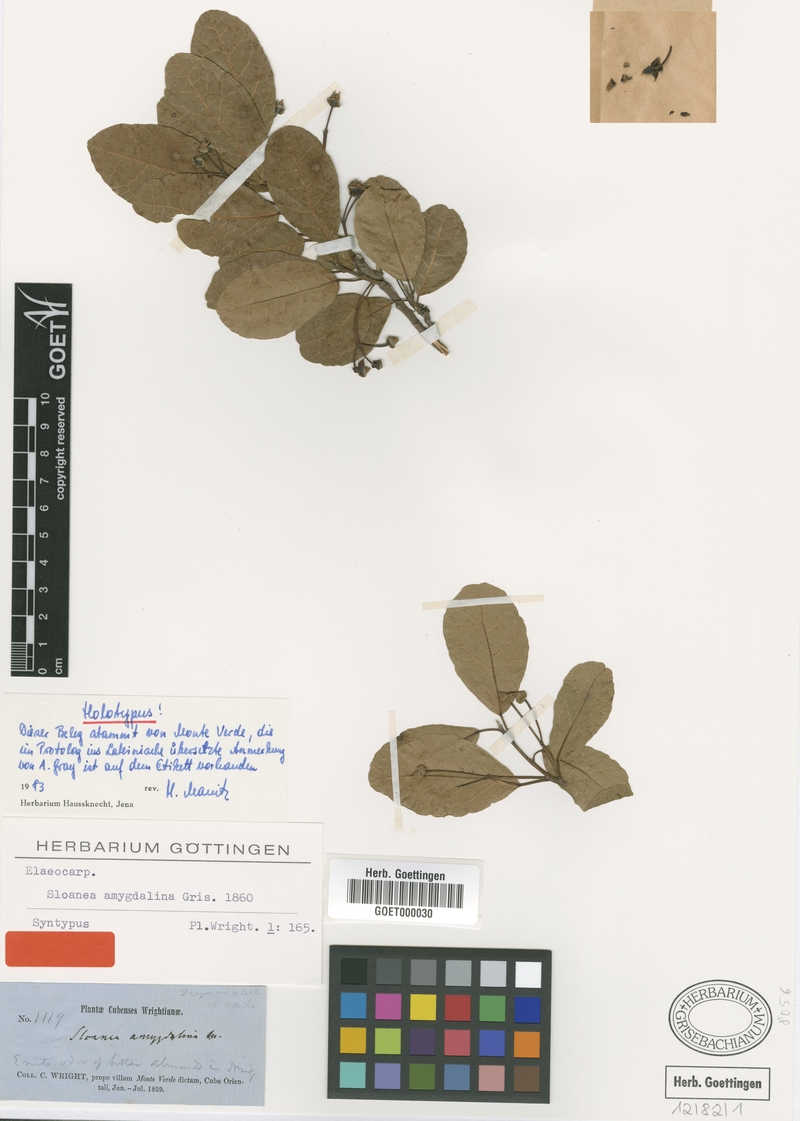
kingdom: Plantae
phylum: Tracheophyta
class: Magnoliopsida
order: Oxalidales
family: Elaeocarpaceae
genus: Sloanea
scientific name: Sloanea amygdalina
